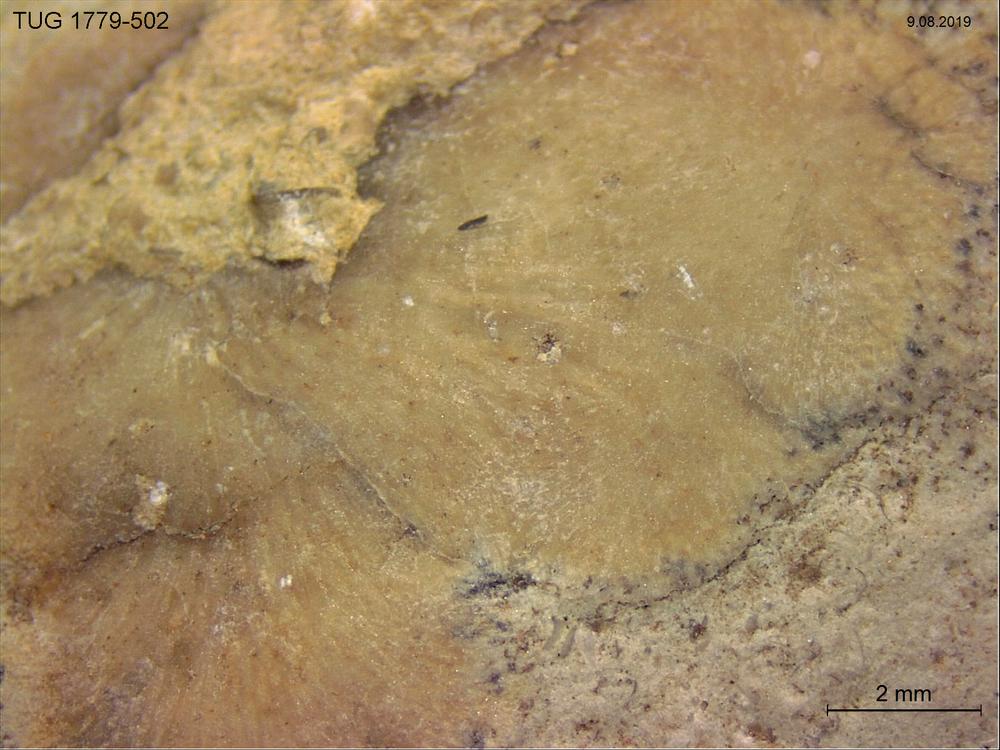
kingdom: Animalia
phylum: Bryozoa
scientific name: Bryozoa
